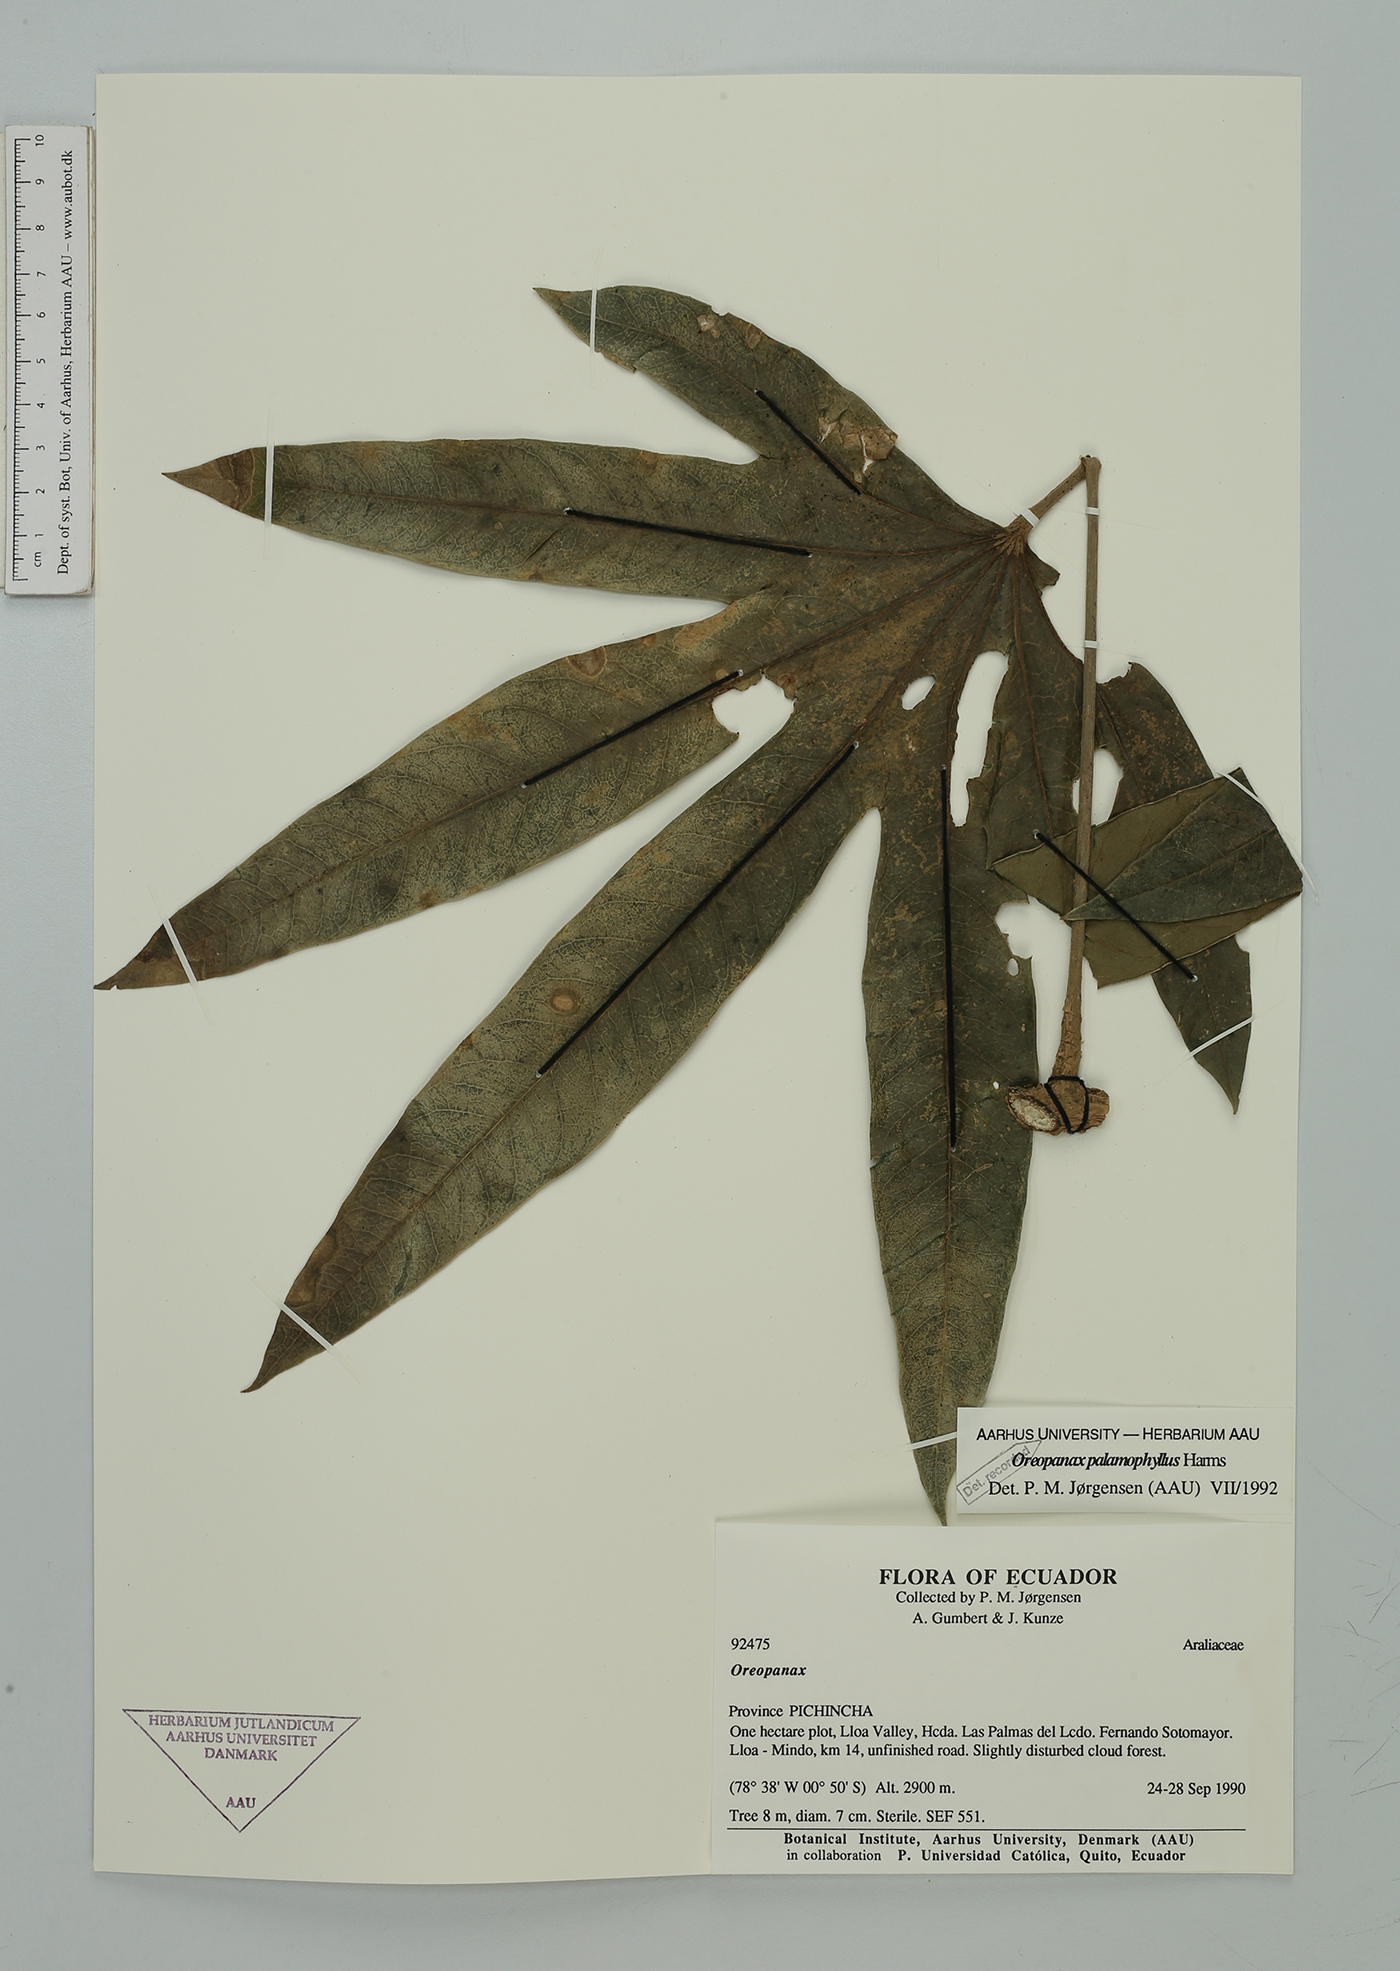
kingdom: Plantae
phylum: Tracheophyta
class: Magnoliopsida
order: Apiales
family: Araliaceae
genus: Oreopanax
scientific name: Oreopanax palamophyllus
